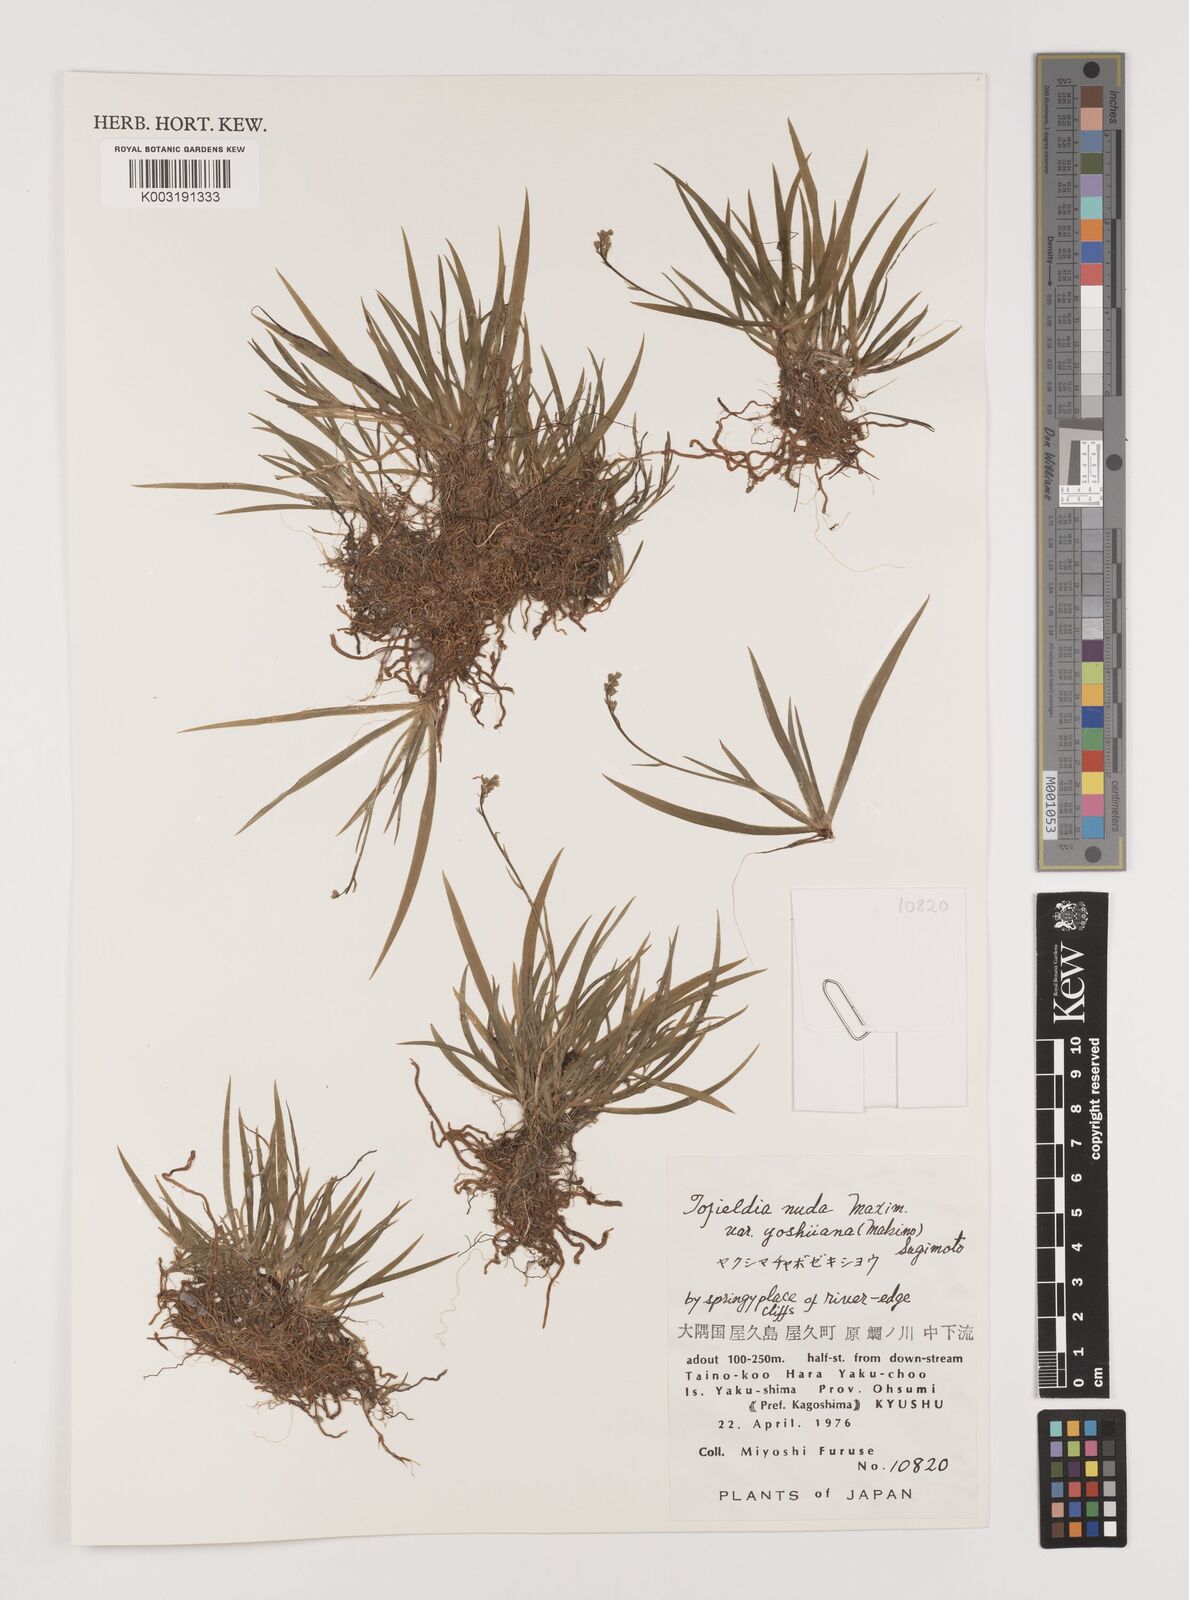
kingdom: Plantae
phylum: Tracheophyta
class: Liliopsida
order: Alismatales
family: Tofieldiaceae
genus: Tofieldia
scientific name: Tofieldia yoshiiana
